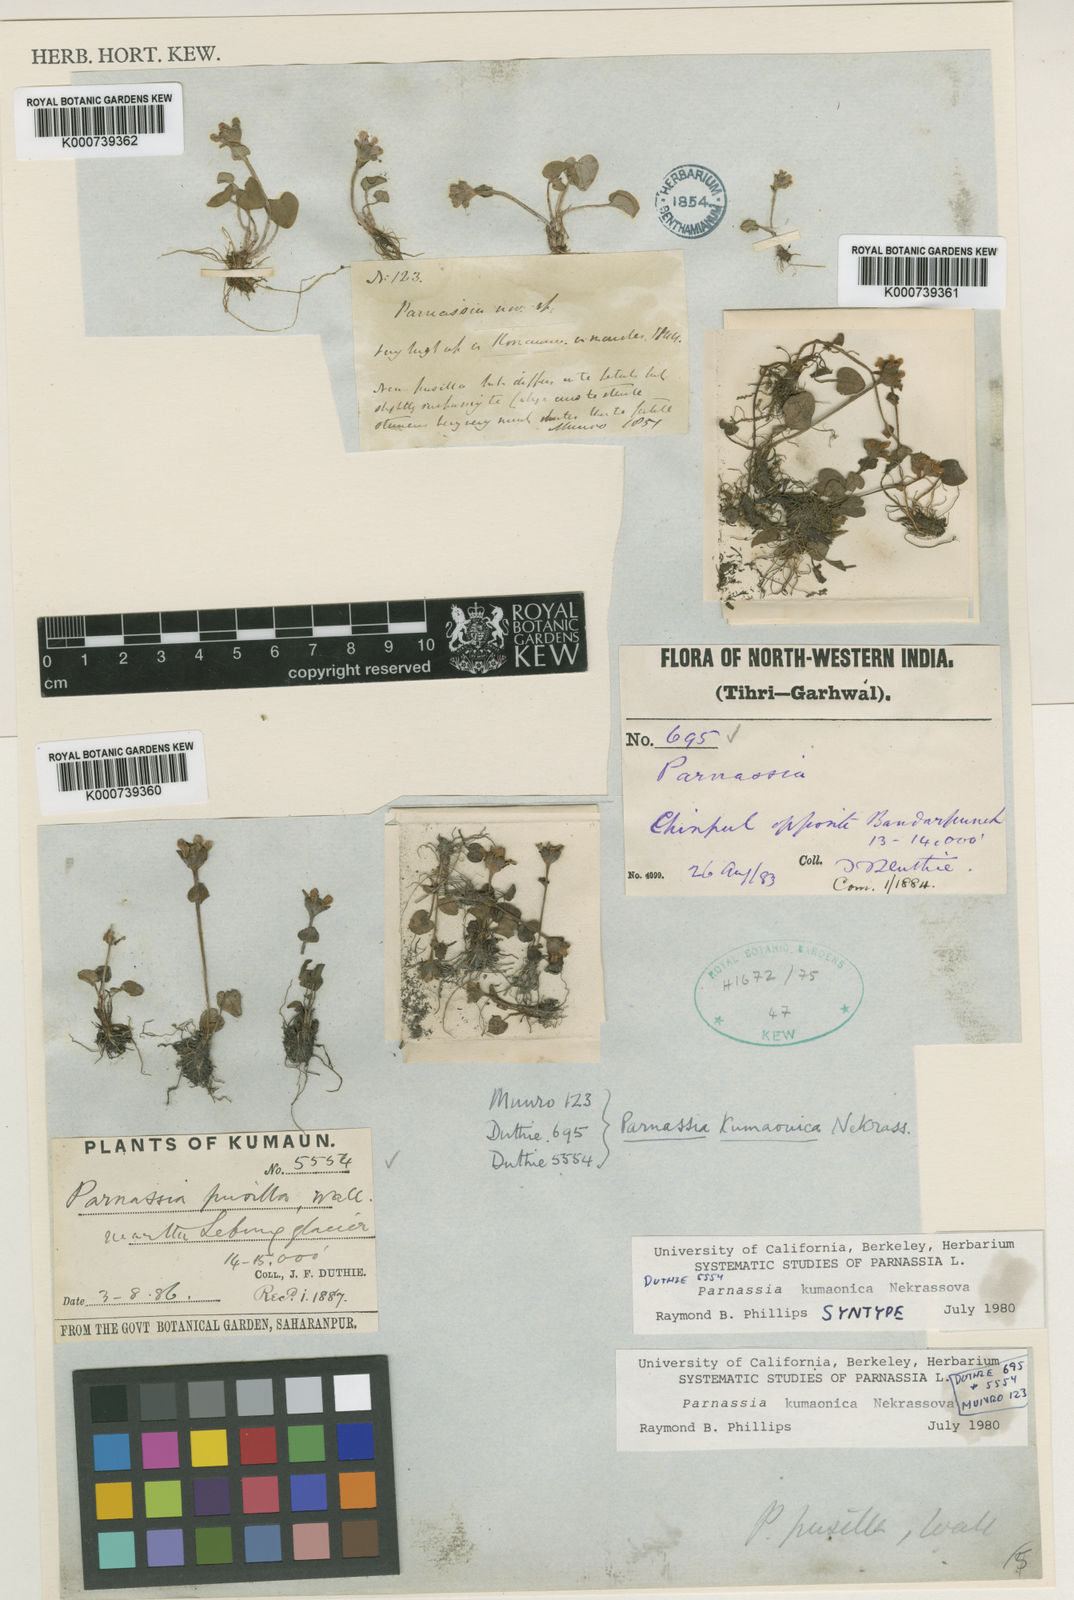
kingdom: Plantae
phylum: Tracheophyta
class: Magnoliopsida
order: Celastrales
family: Parnassiaceae
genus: Parnassia
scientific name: Parnassia pusilla
